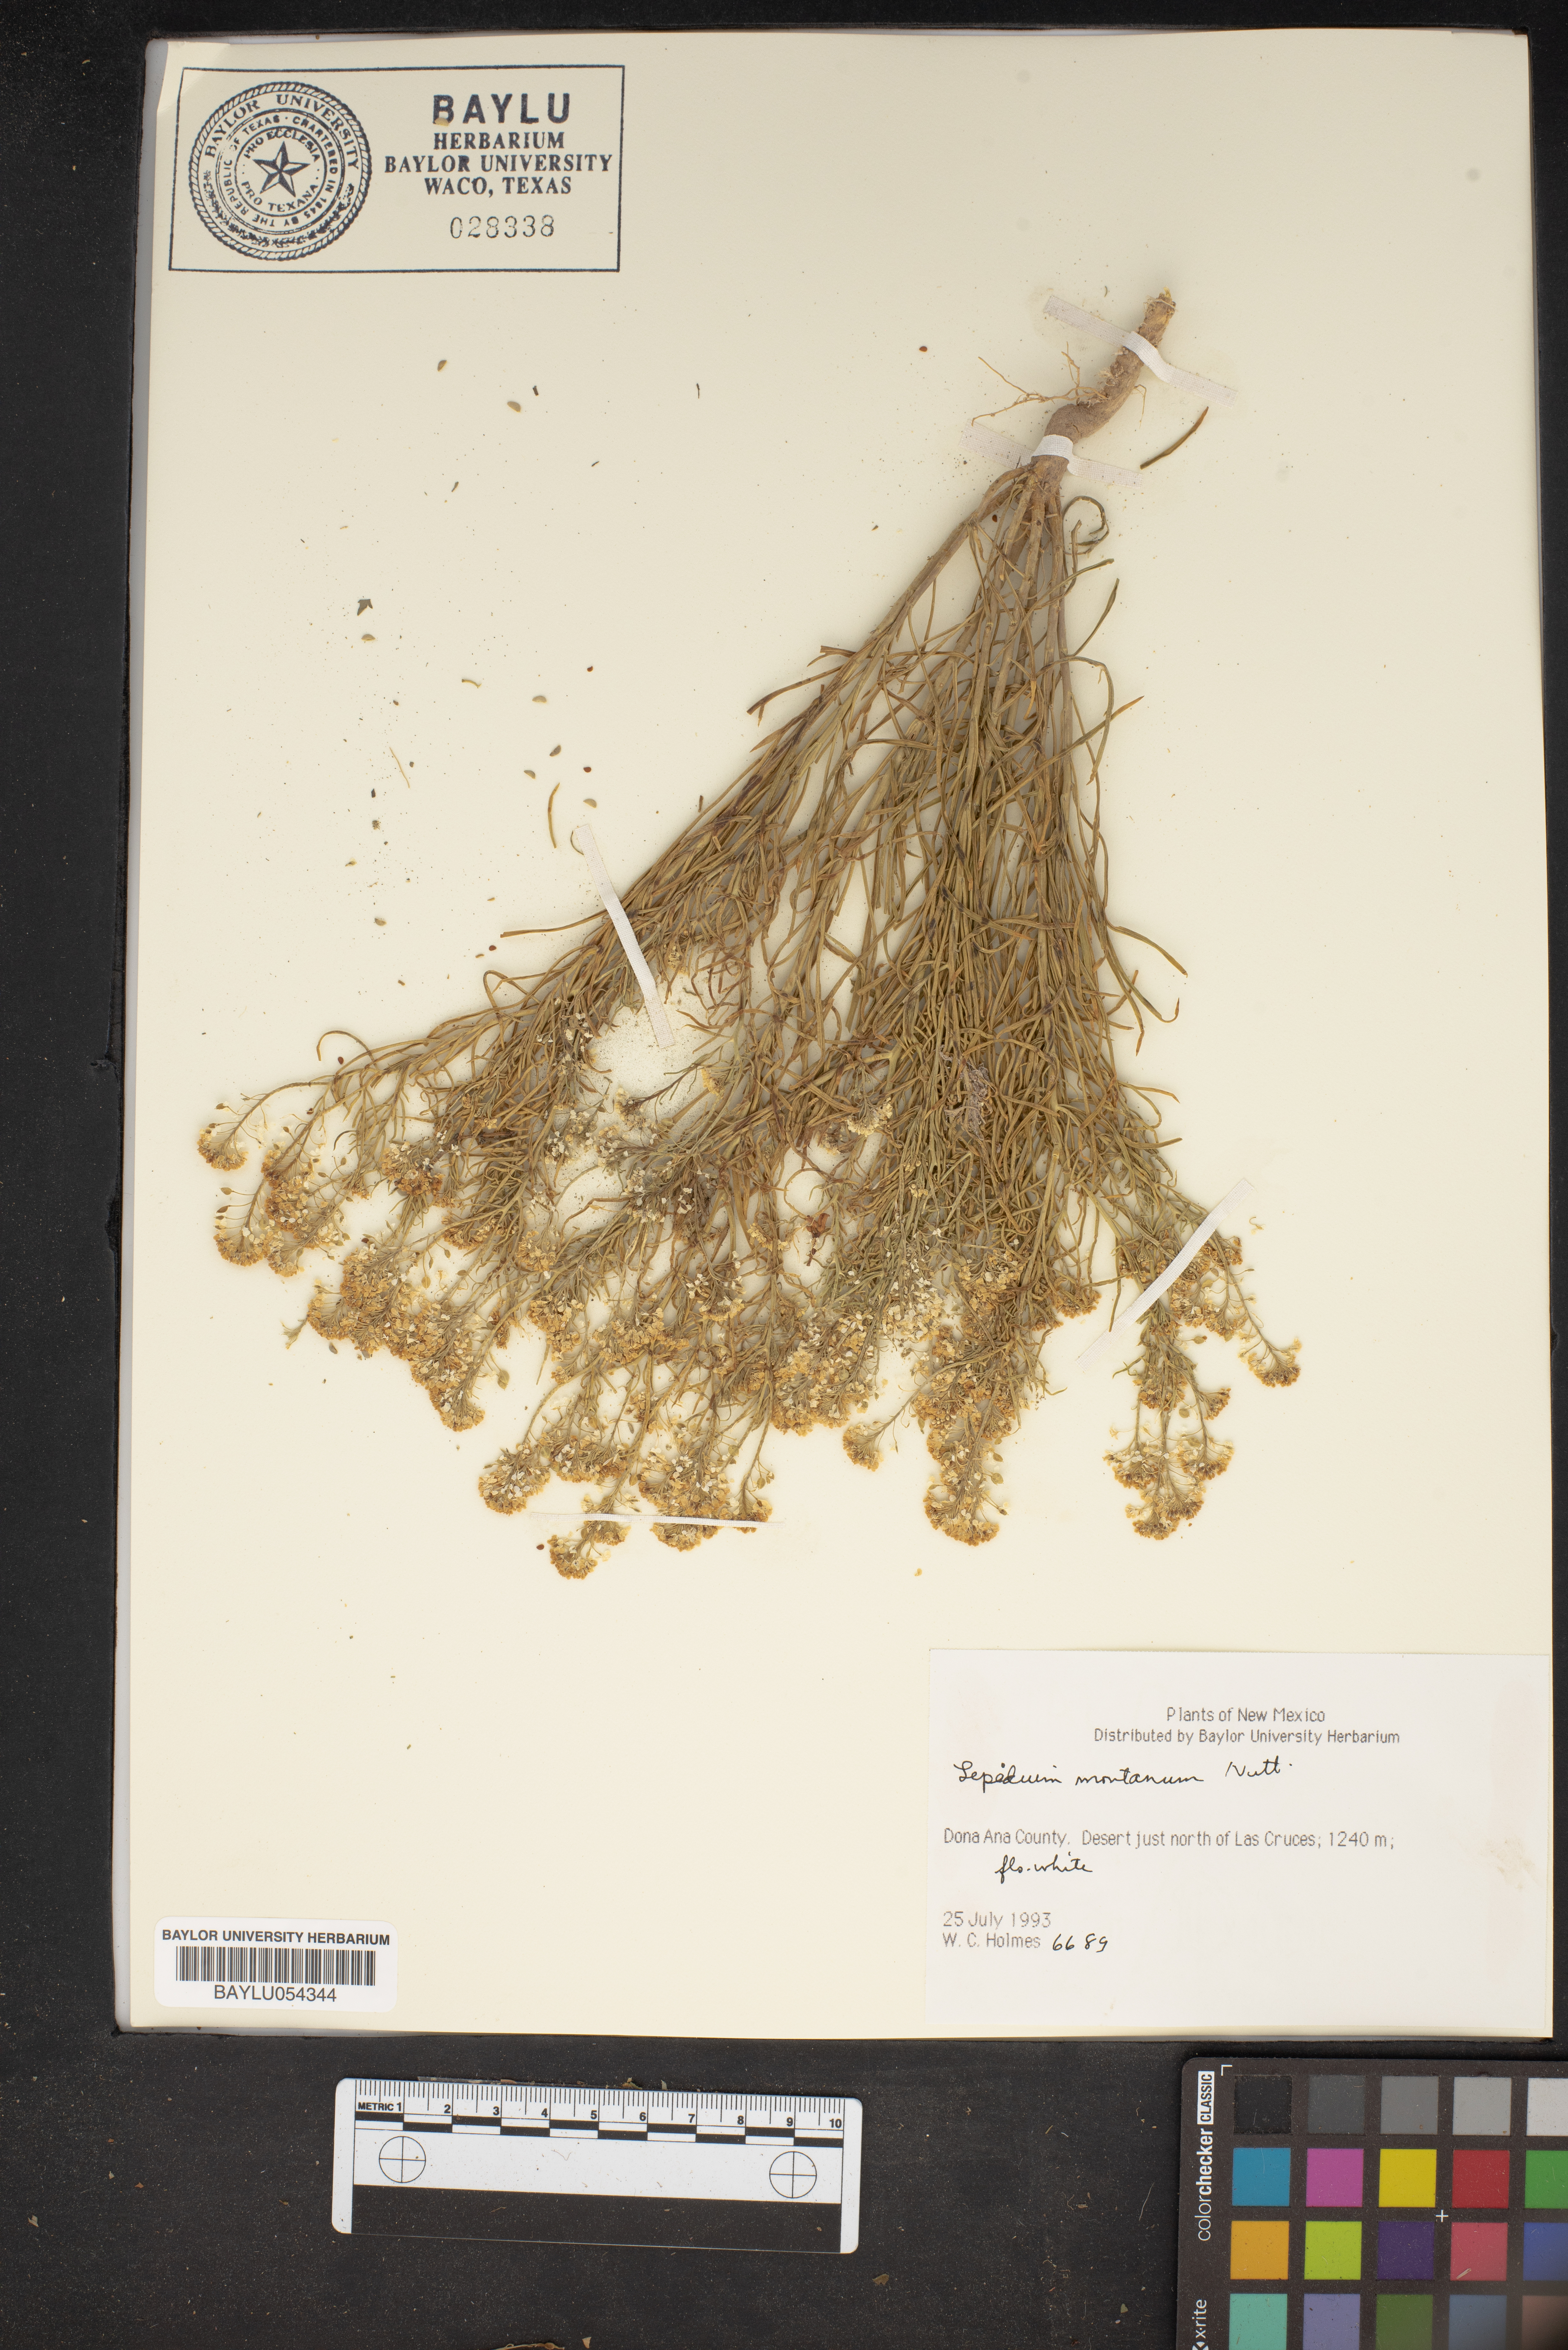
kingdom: Plantae
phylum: Tracheophyta
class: Magnoliopsida
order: Brassicales
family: Brassicaceae
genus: Lepidium
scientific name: Lepidium montanum
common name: Mountain pepperplant
